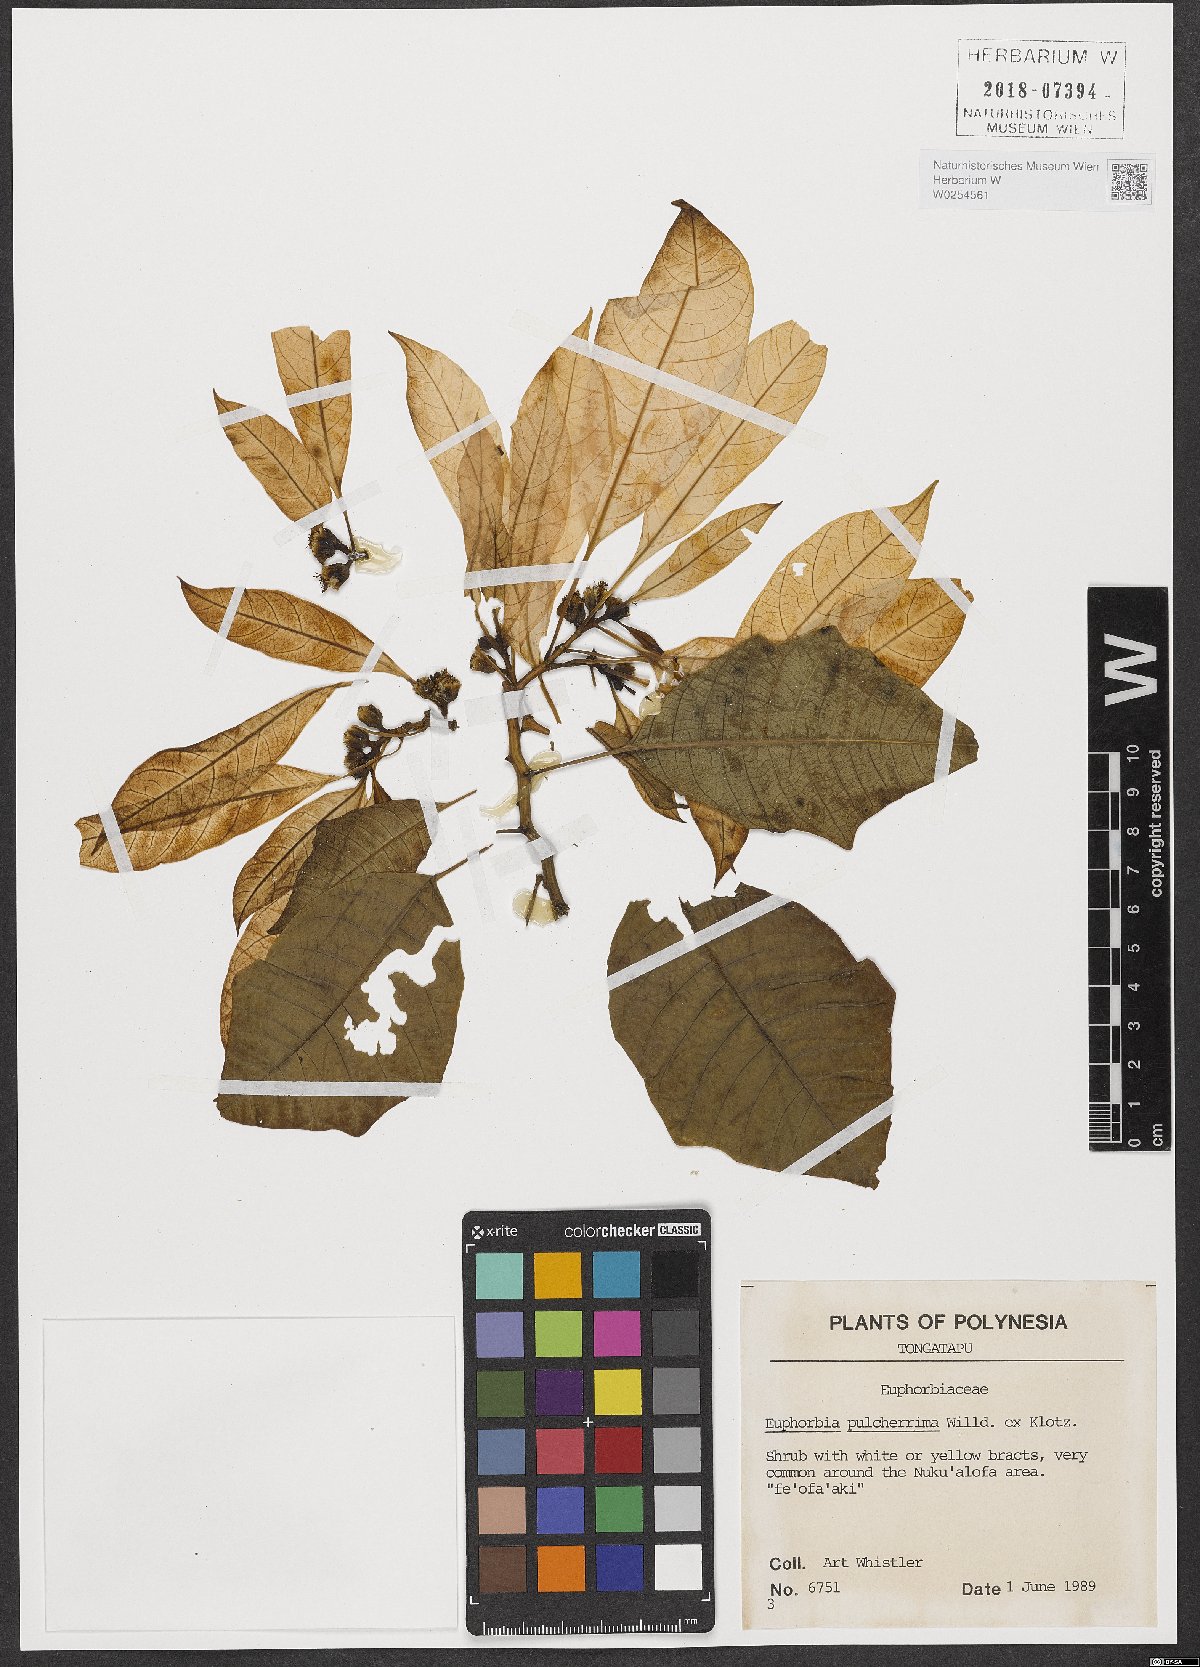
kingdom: Plantae
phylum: Tracheophyta
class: Magnoliopsida
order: Malpighiales
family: Euphorbiaceae
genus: Euphorbia
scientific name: Euphorbia pulcherrima
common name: Christmas-flower
